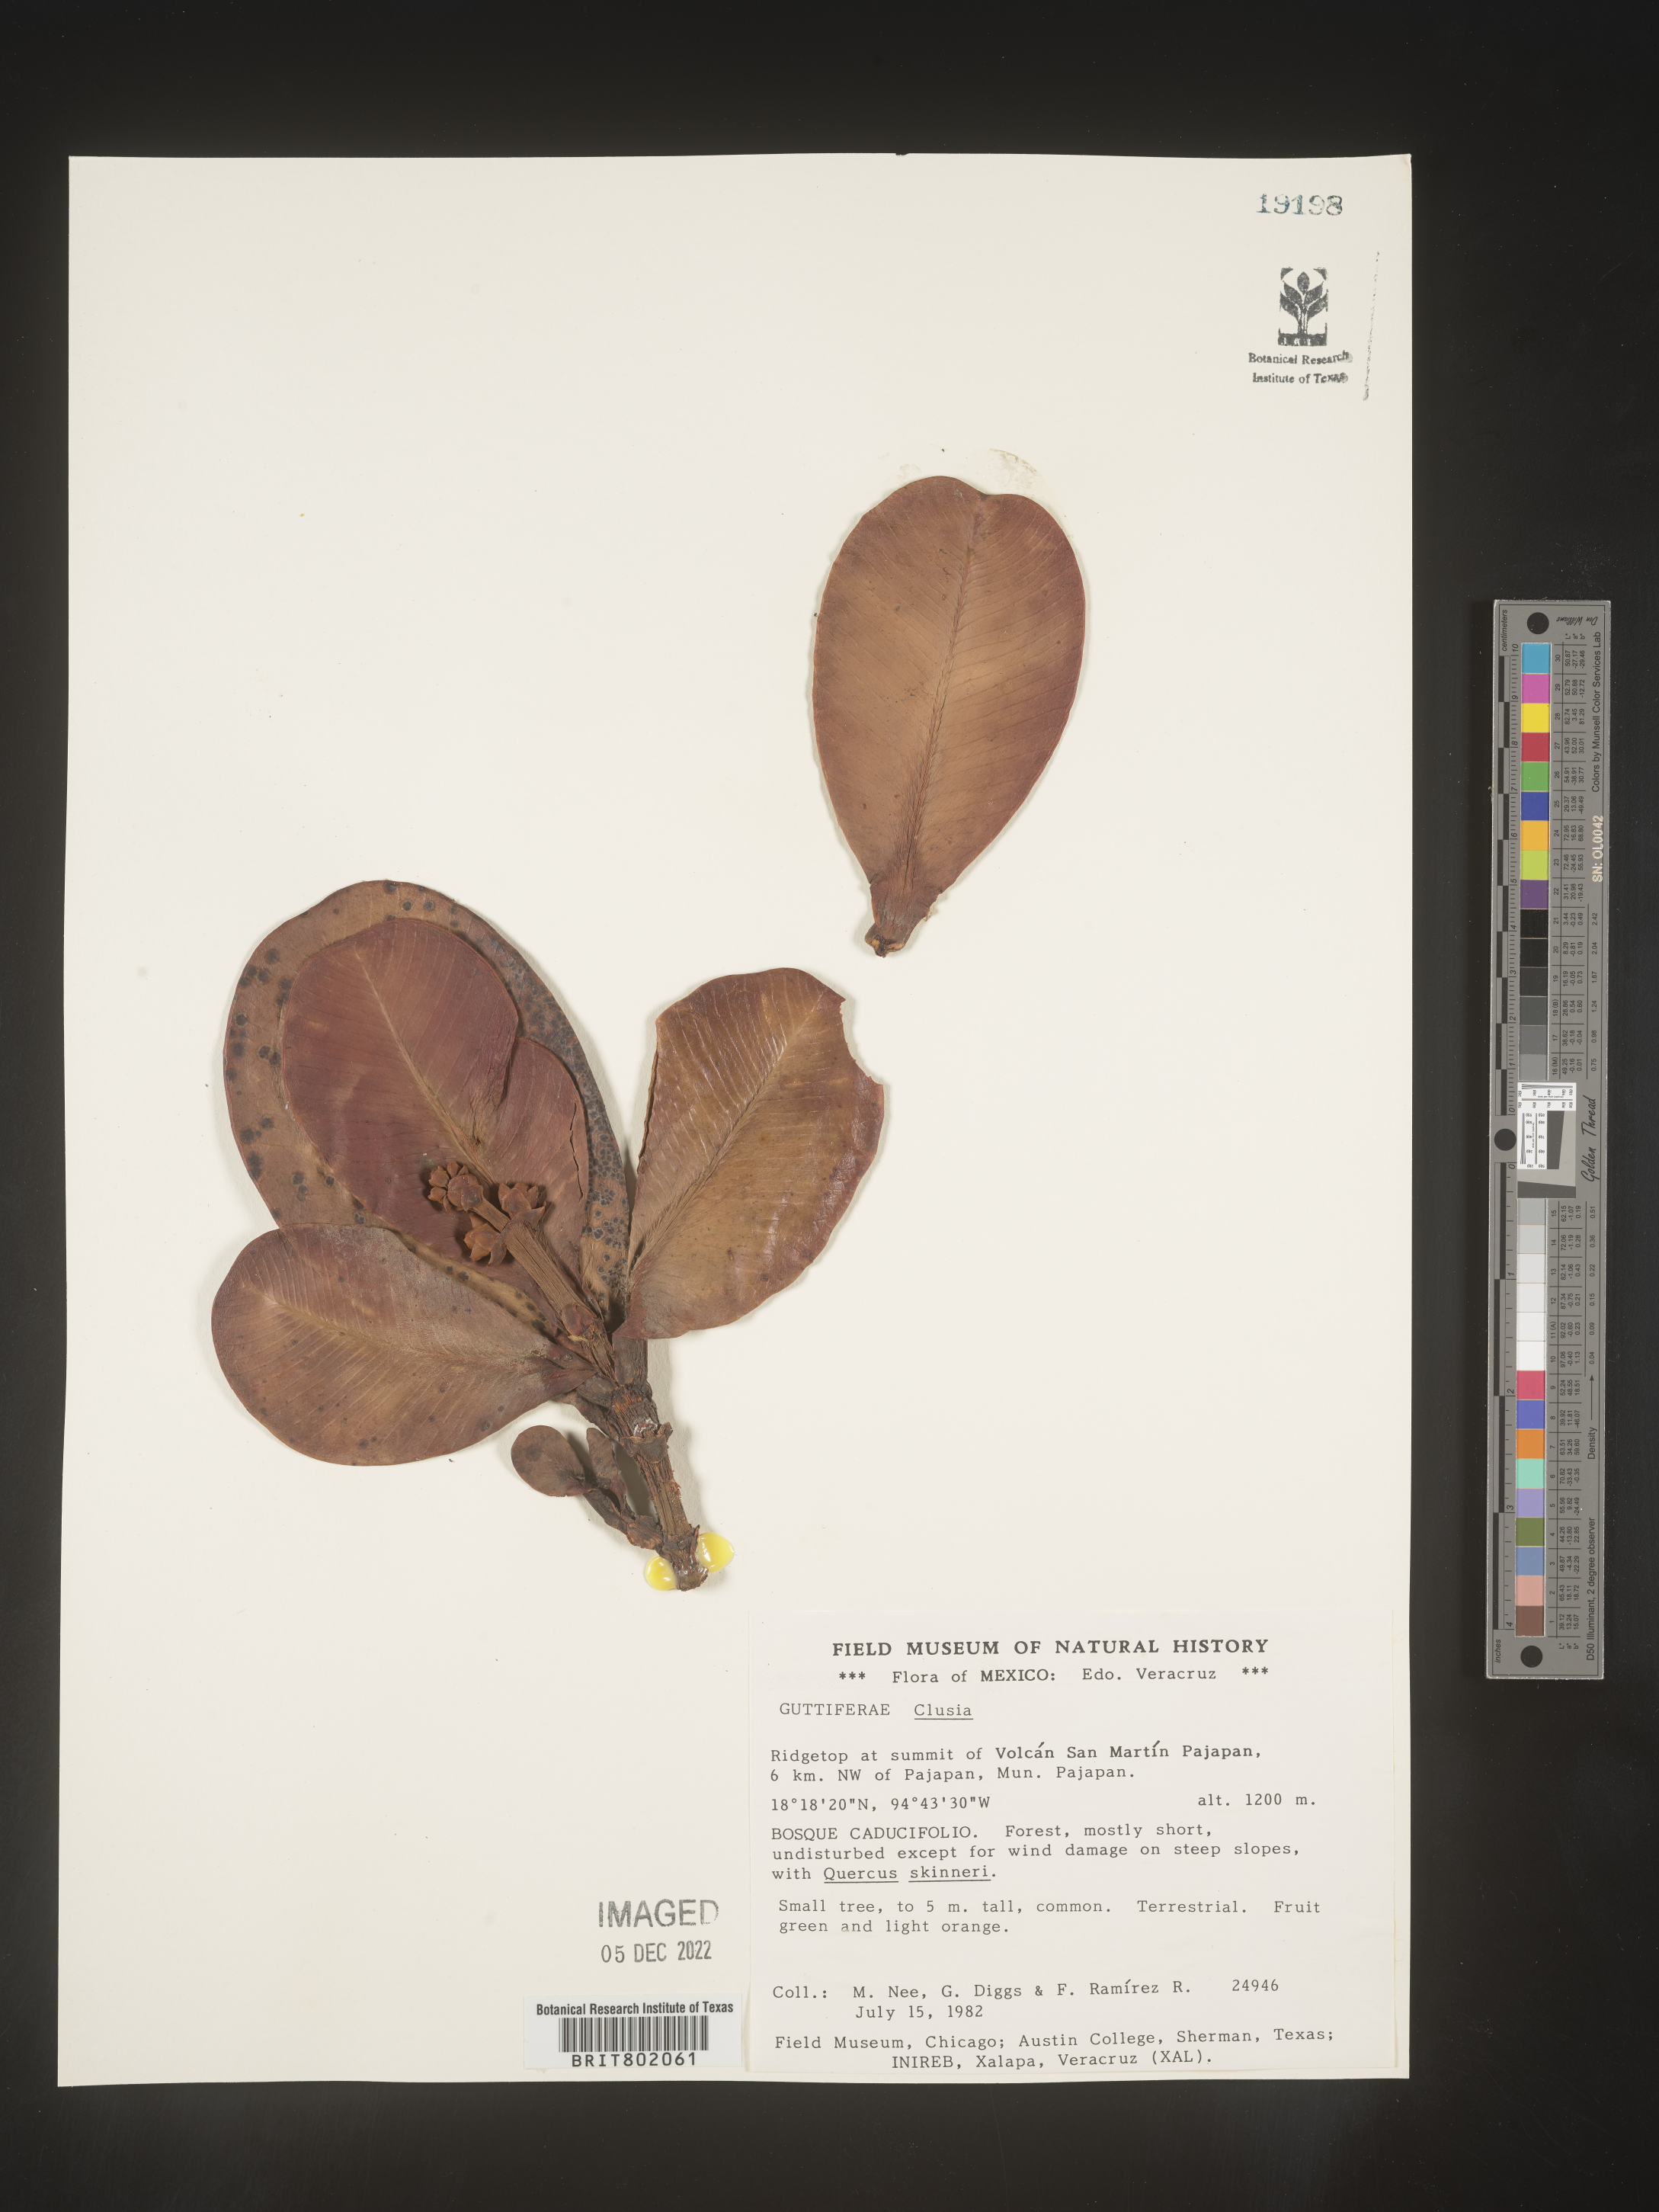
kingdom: Plantae
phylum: Tracheophyta
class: Magnoliopsida
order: Malpighiales
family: Clusiaceae
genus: Clusia
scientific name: Clusia
